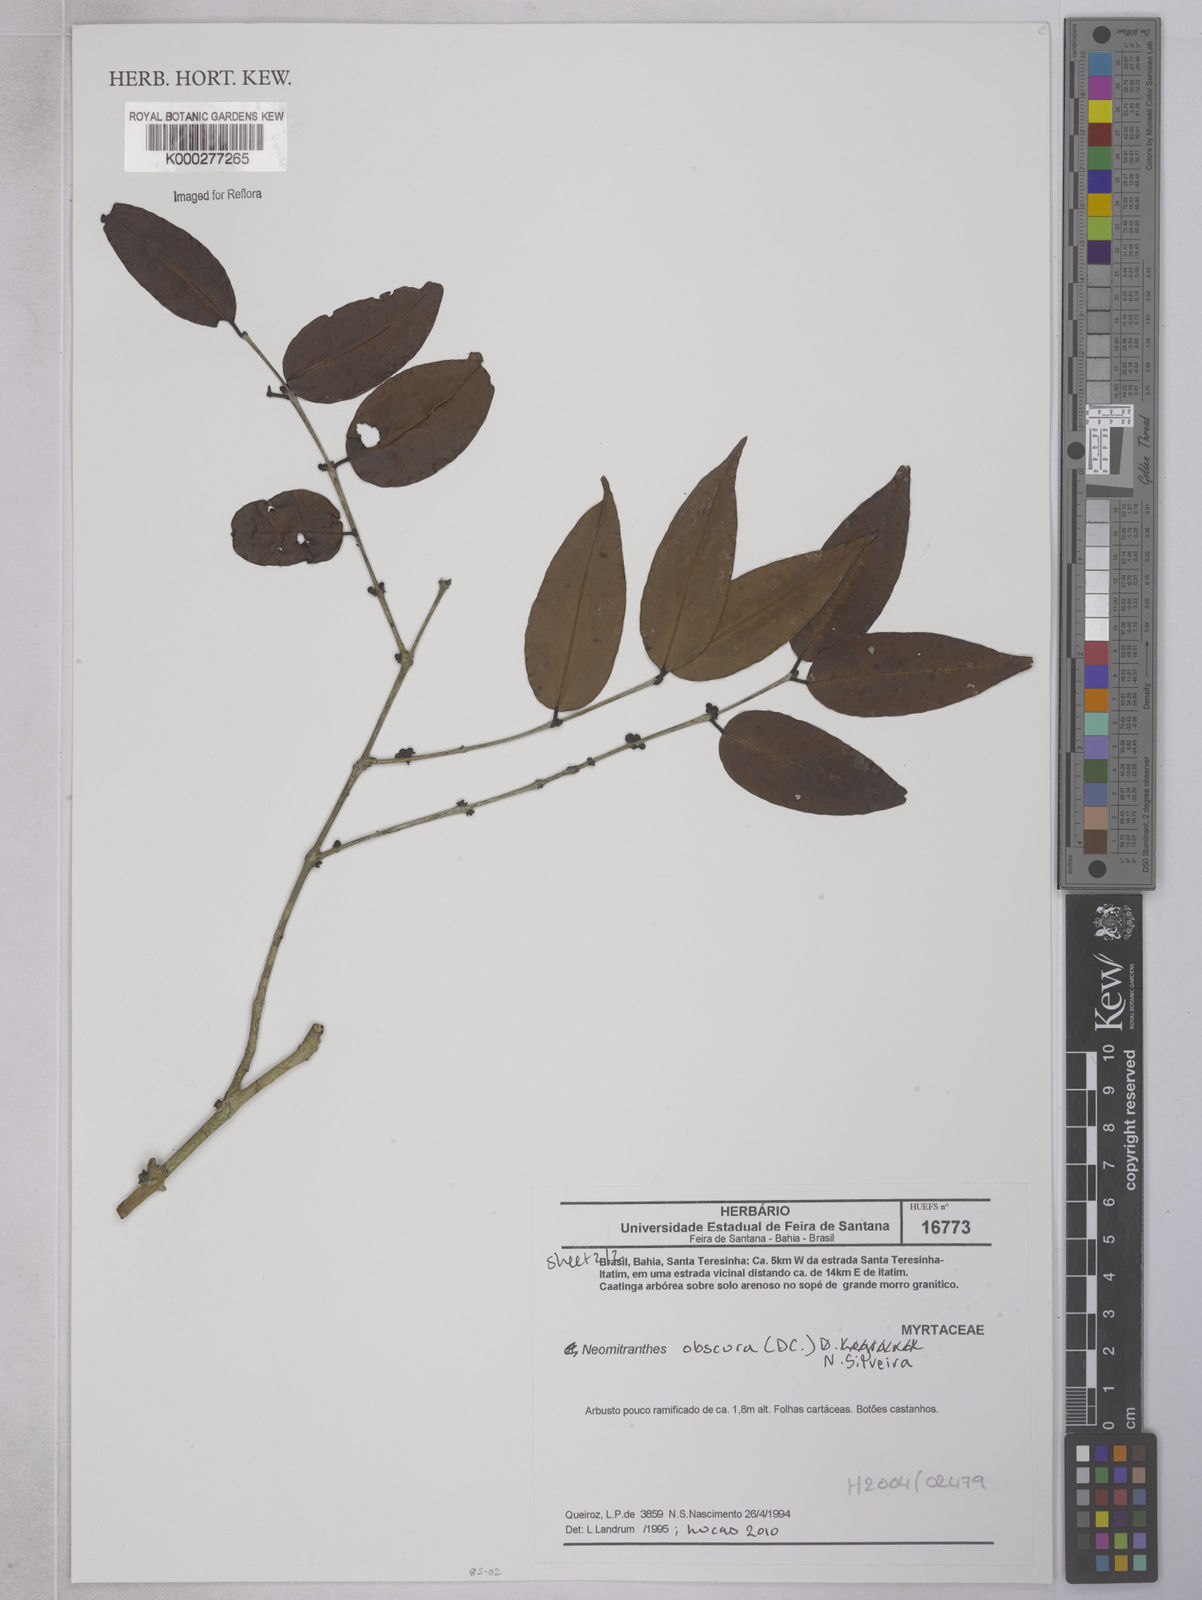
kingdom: Plantae
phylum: Tracheophyta
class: Magnoliopsida
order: Myrtales
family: Myrtaceae
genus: Neomitranthes
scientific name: Neomitranthes obscura
